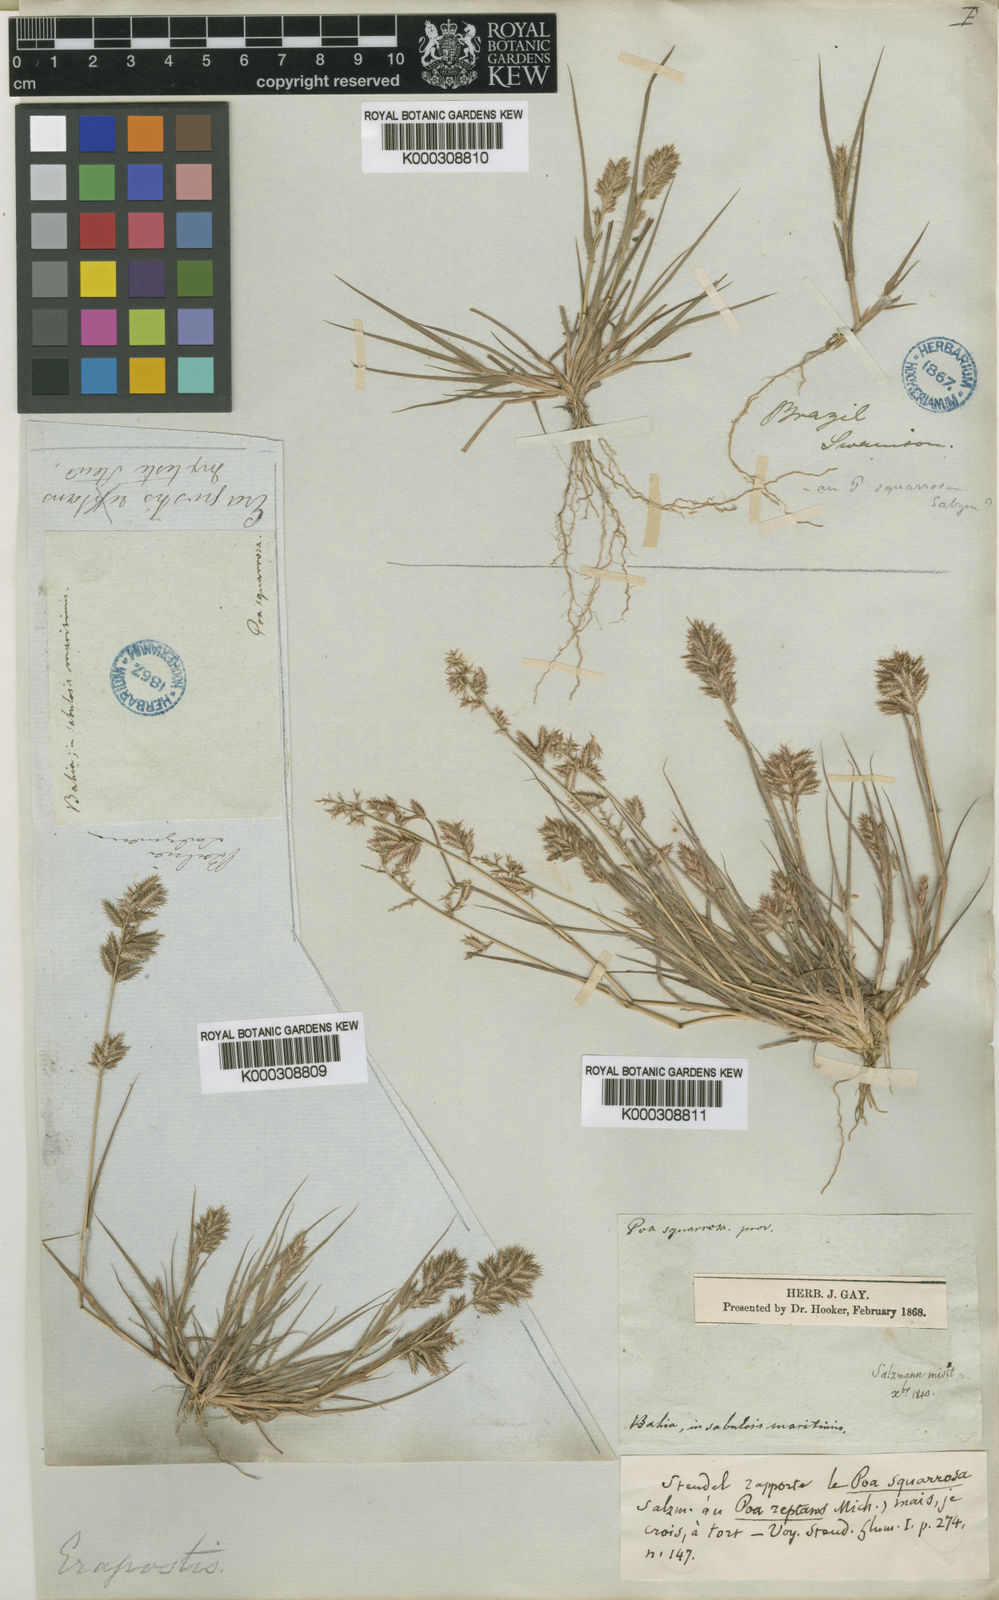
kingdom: Plantae
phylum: Tracheophyta
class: Liliopsida
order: Poales
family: Poaceae
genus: Eragrostis
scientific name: Eragrostis maypurensis
